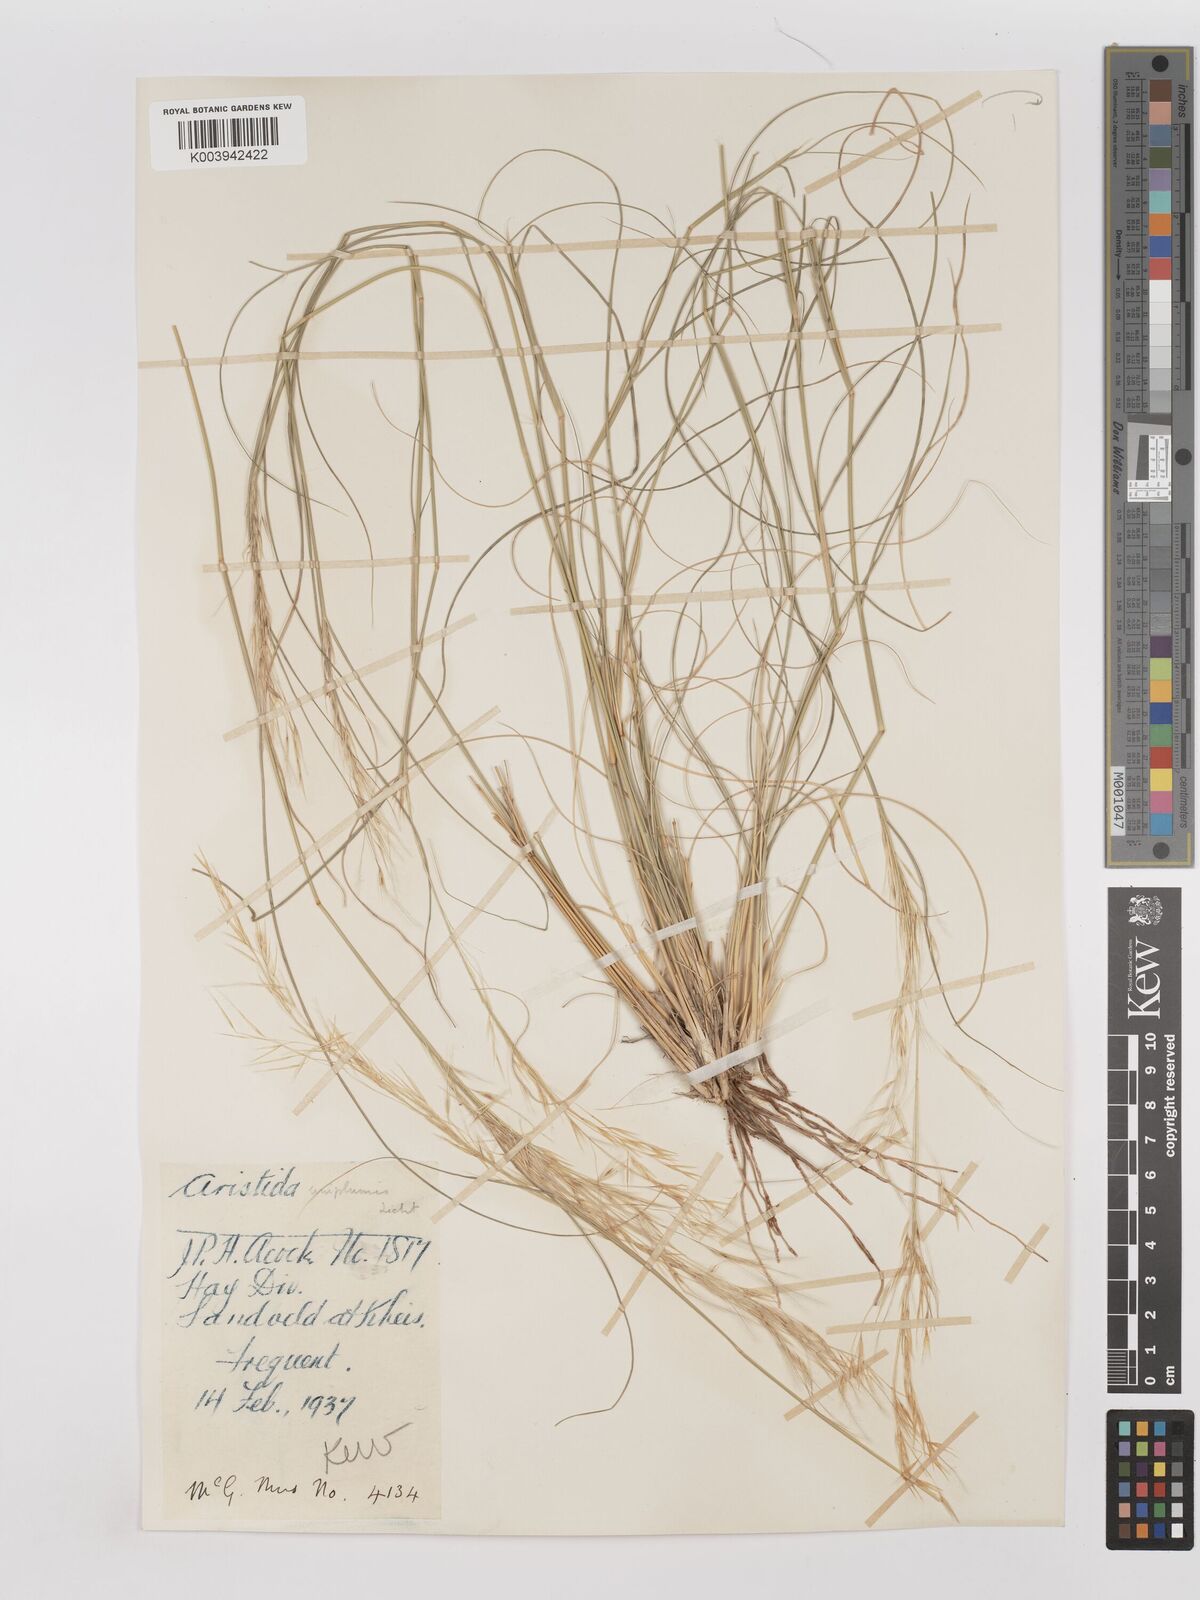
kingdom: Plantae
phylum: Tracheophyta
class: Liliopsida
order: Poales
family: Poaceae
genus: Stipagrostis
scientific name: Stipagrostis uniplumis
